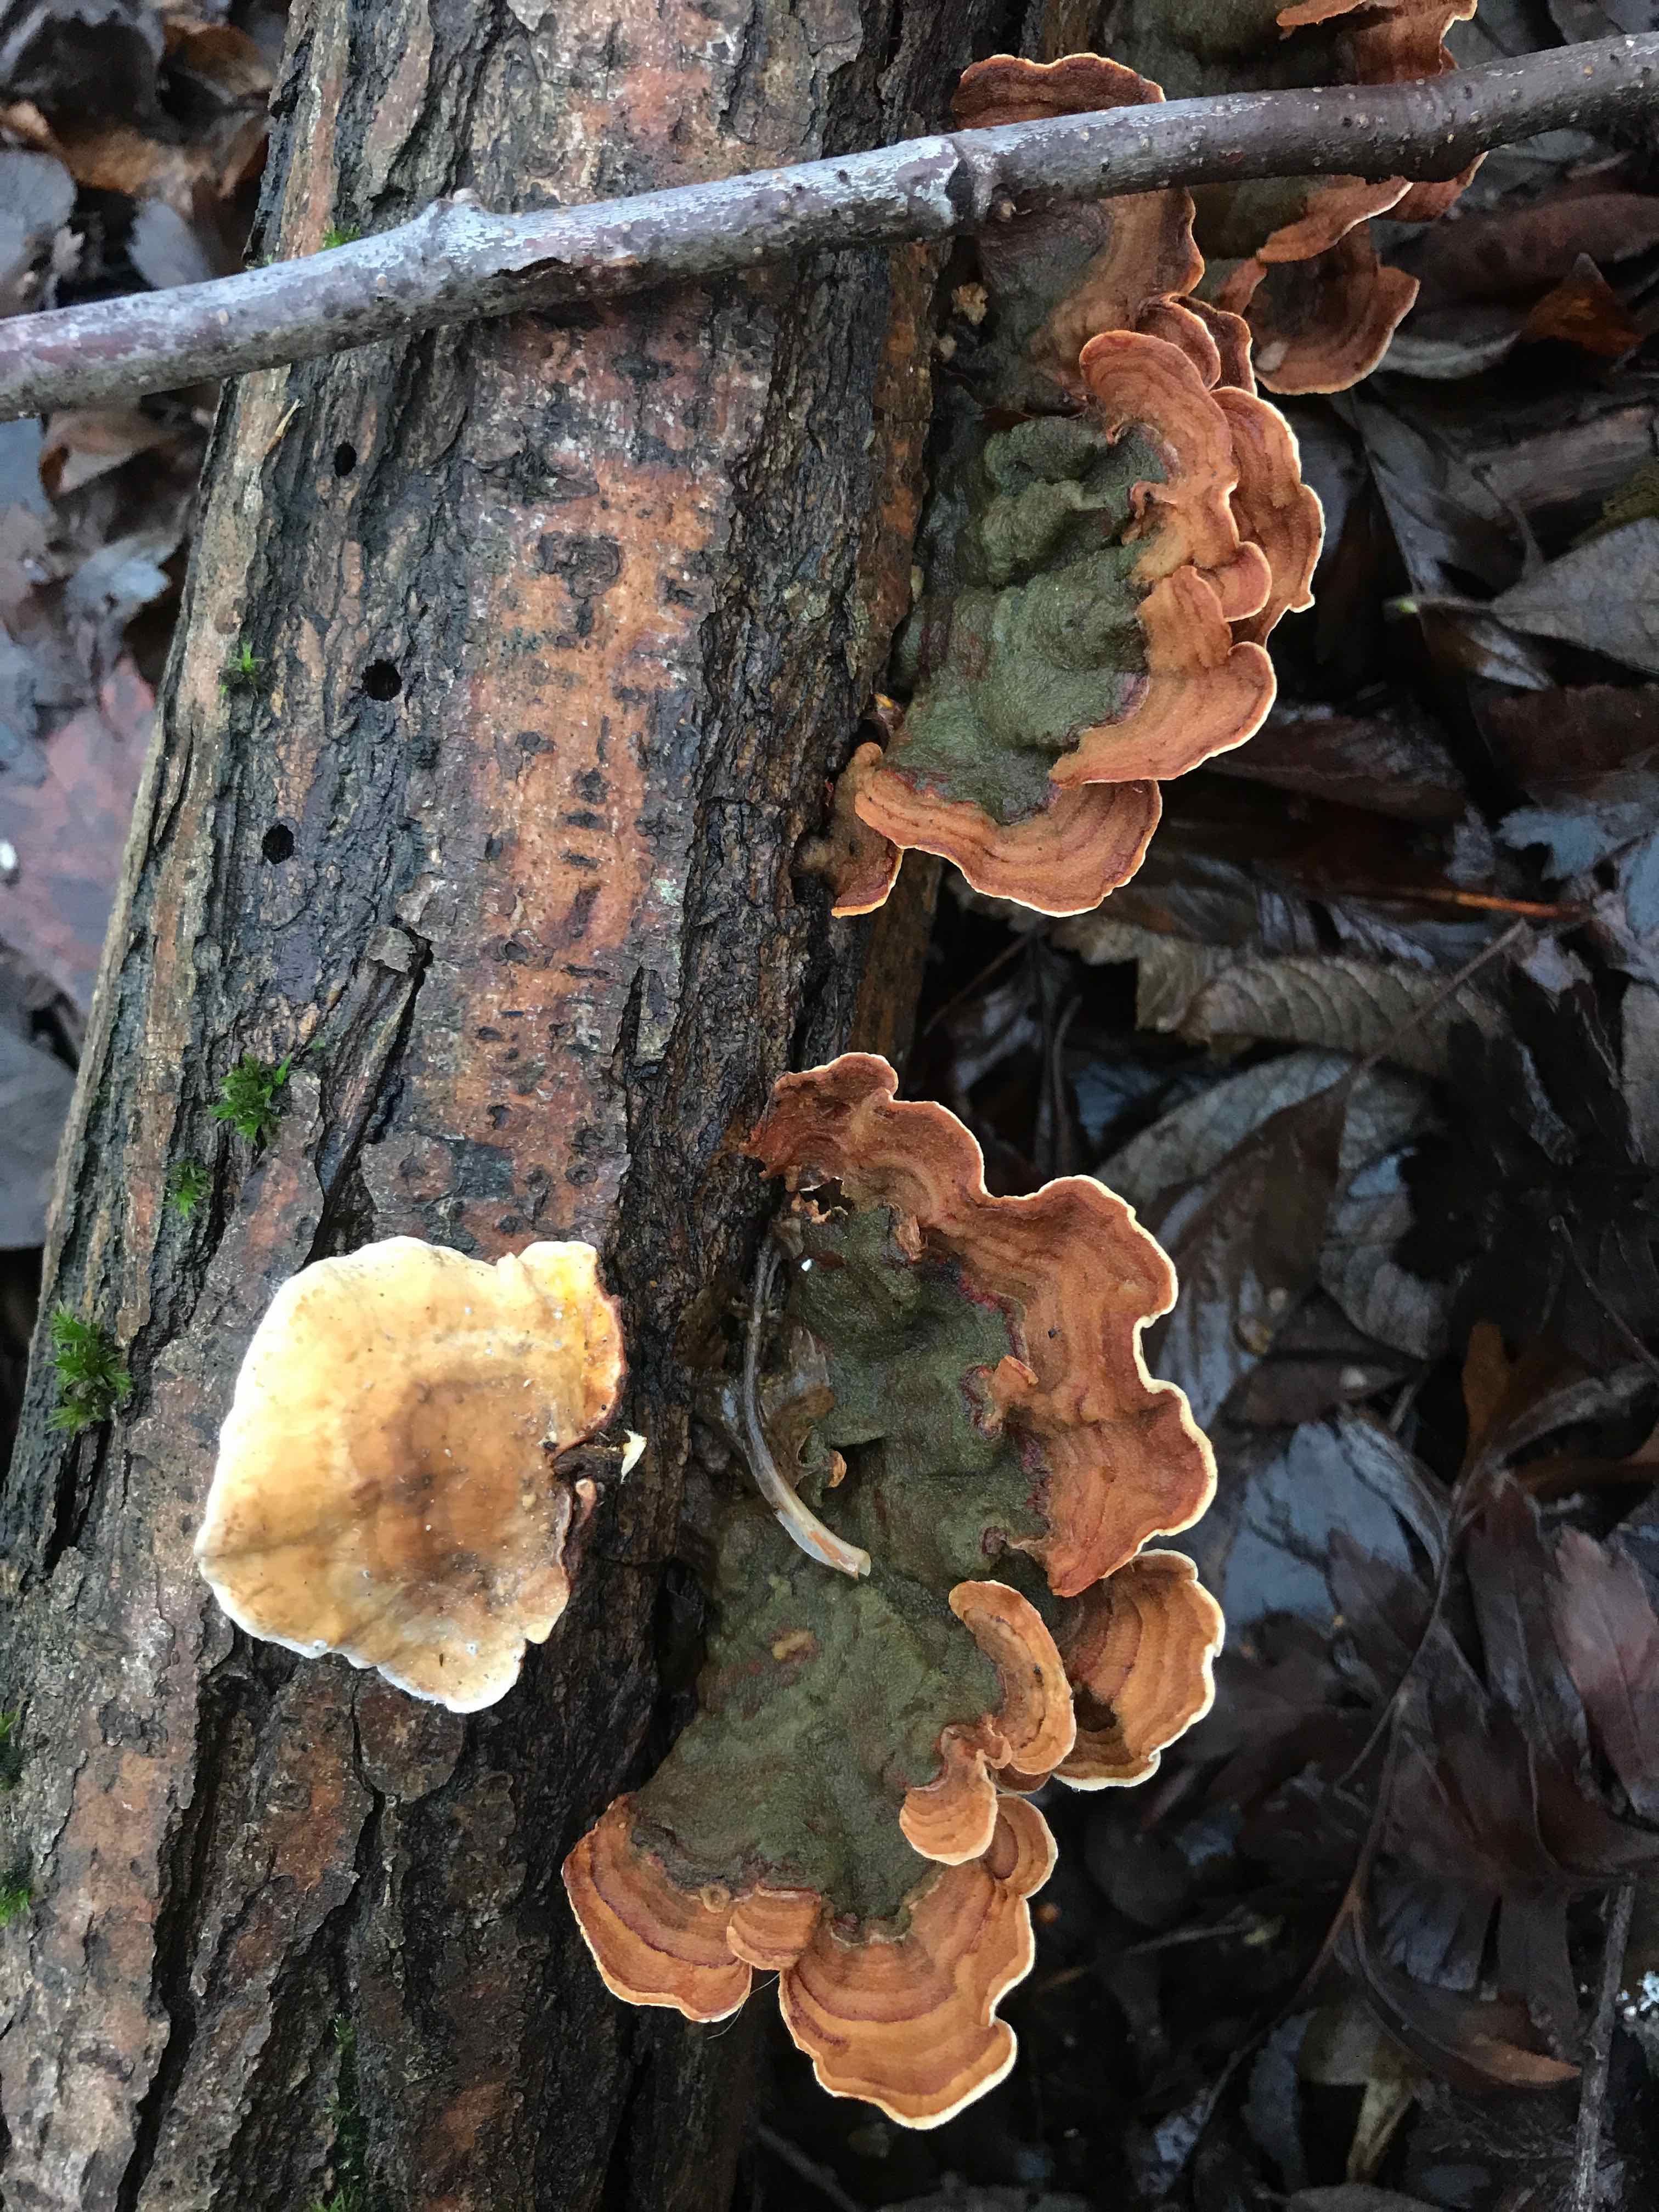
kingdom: Fungi
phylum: Basidiomycota
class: Agaricomycetes
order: Russulales
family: Stereaceae
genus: Stereum
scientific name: Stereum subtomentosum
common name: smuk lædersvamp
